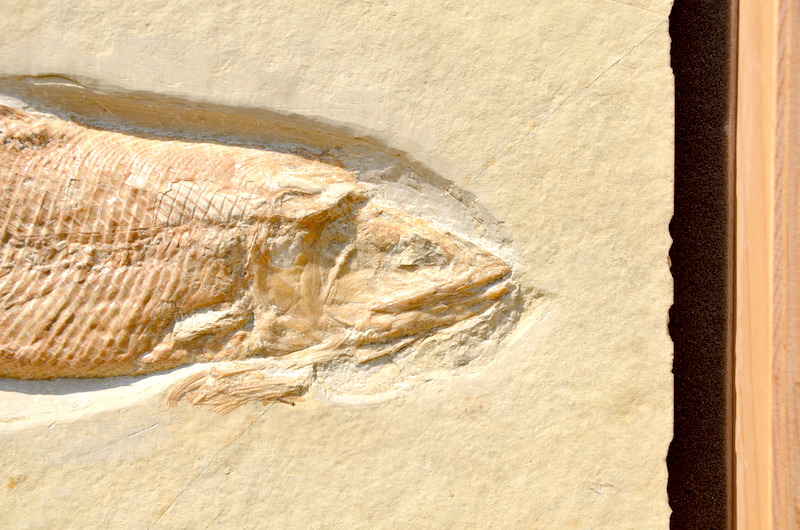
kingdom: Animalia
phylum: Chordata
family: Ankylophoridae
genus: Siemensichthys
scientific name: Siemensichthys macrocephalus
